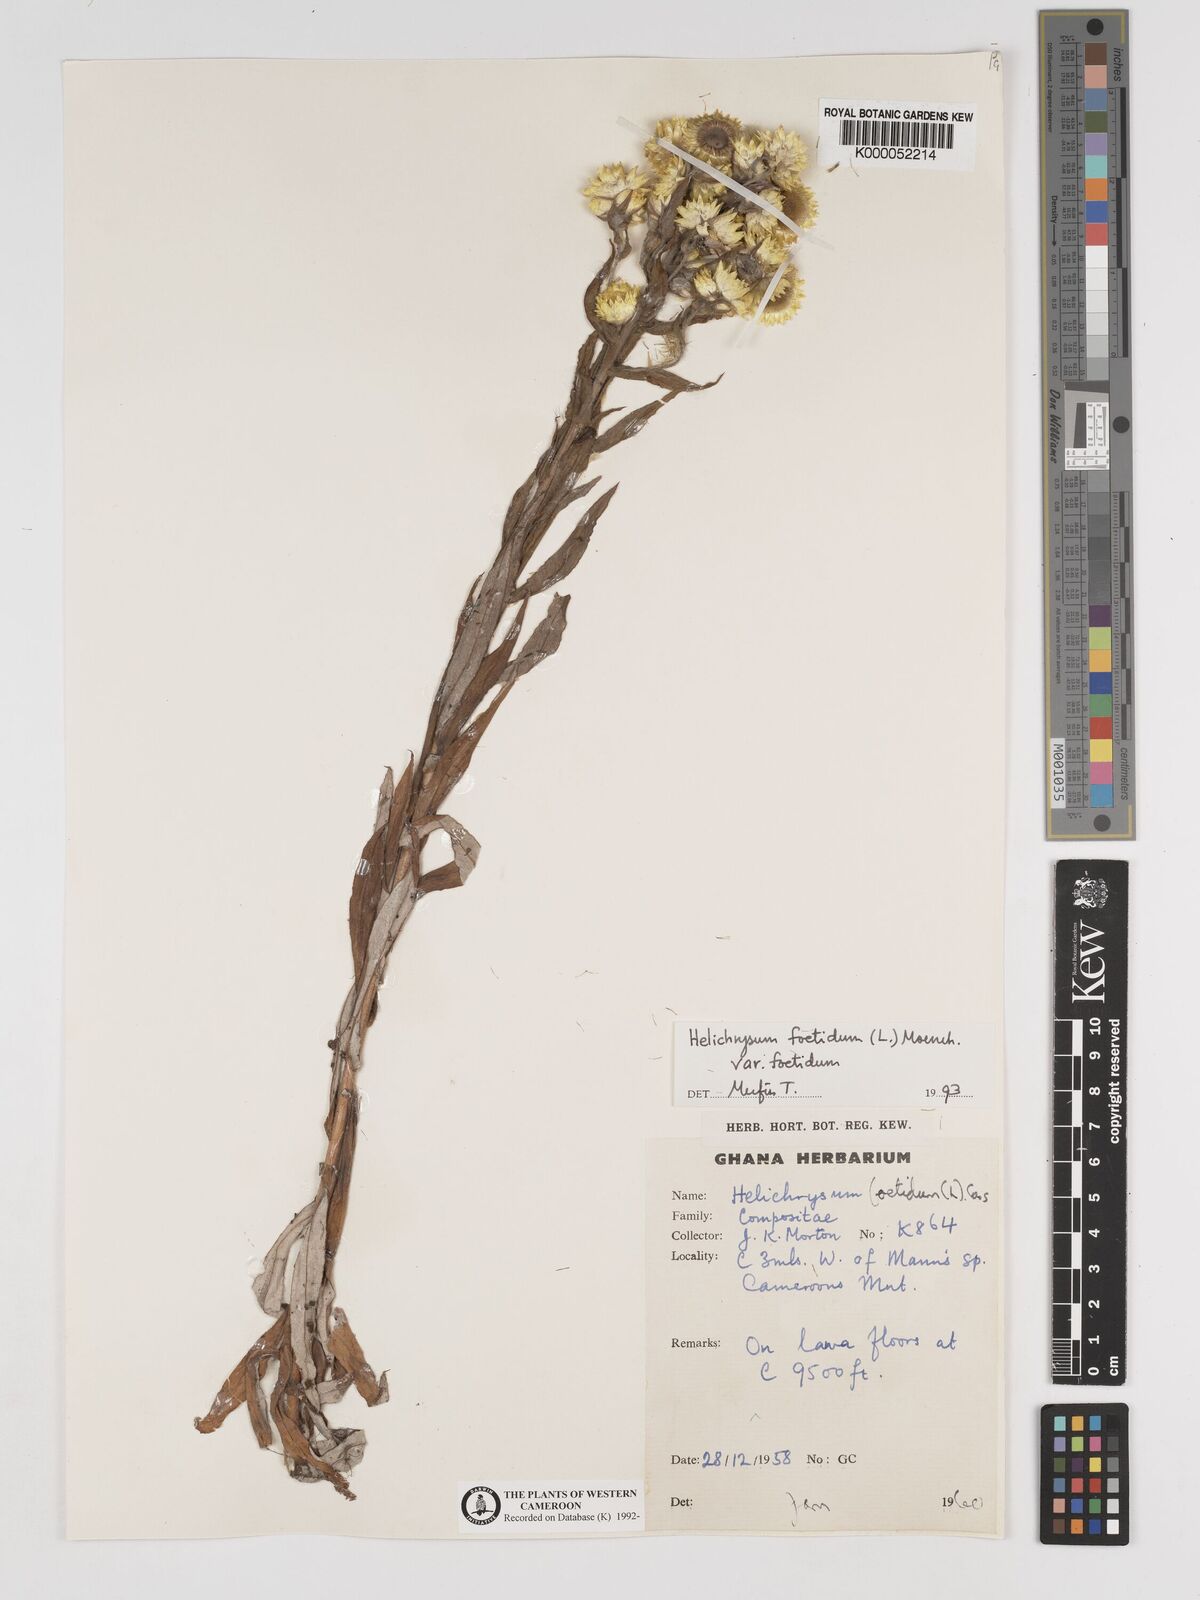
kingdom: Plantae
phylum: Tracheophyta
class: Magnoliopsida
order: Asterales
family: Asteraceae
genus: Helichrysum
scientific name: Helichrysum foetidum
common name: Stinking everlasting
